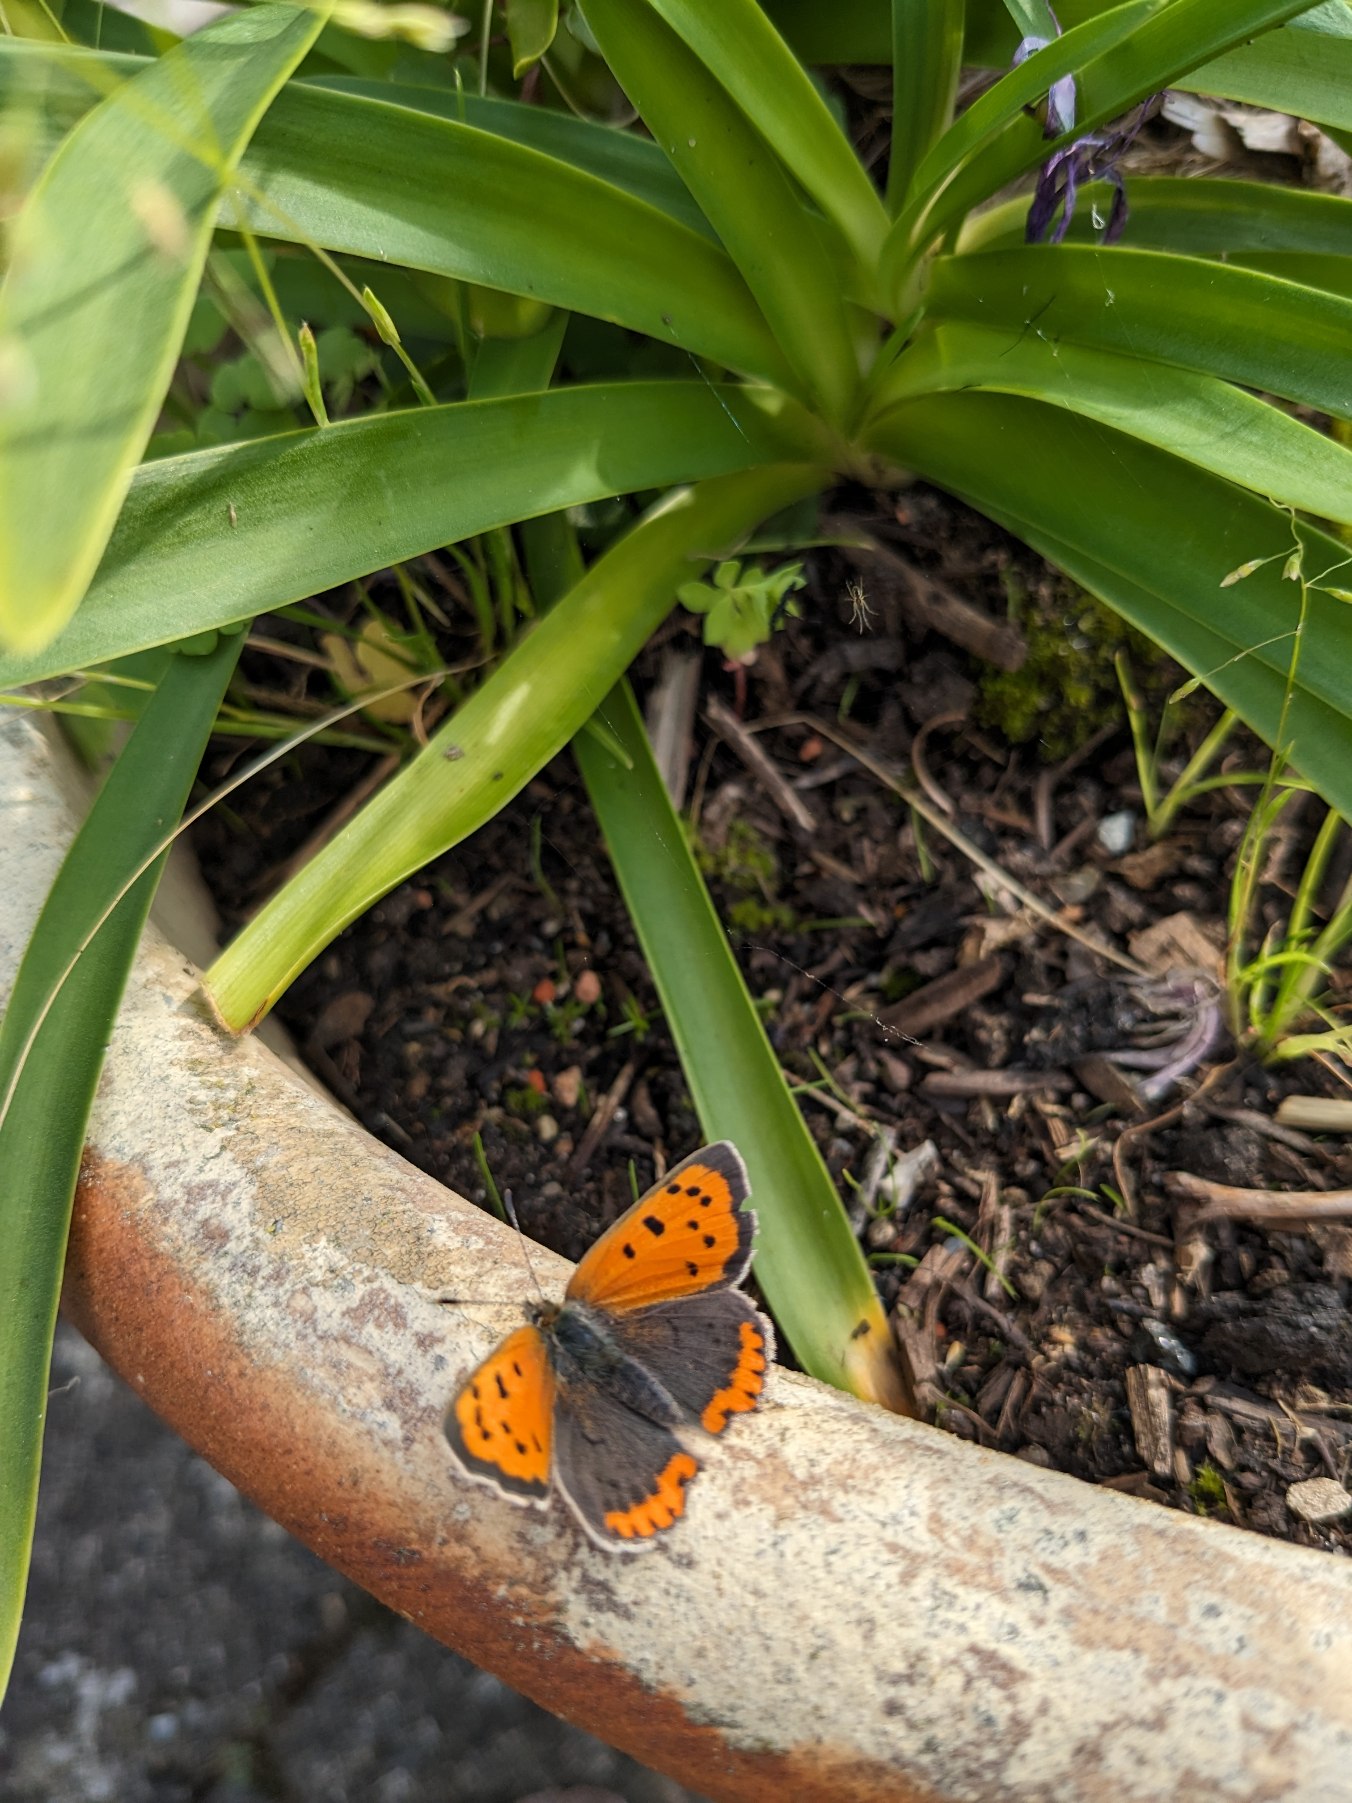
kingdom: Animalia
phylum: Arthropoda
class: Insecta
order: Lepidoptera
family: Lycaenidae
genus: Lycaena
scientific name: Lycaena phlaeas
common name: Lille ildfugl
